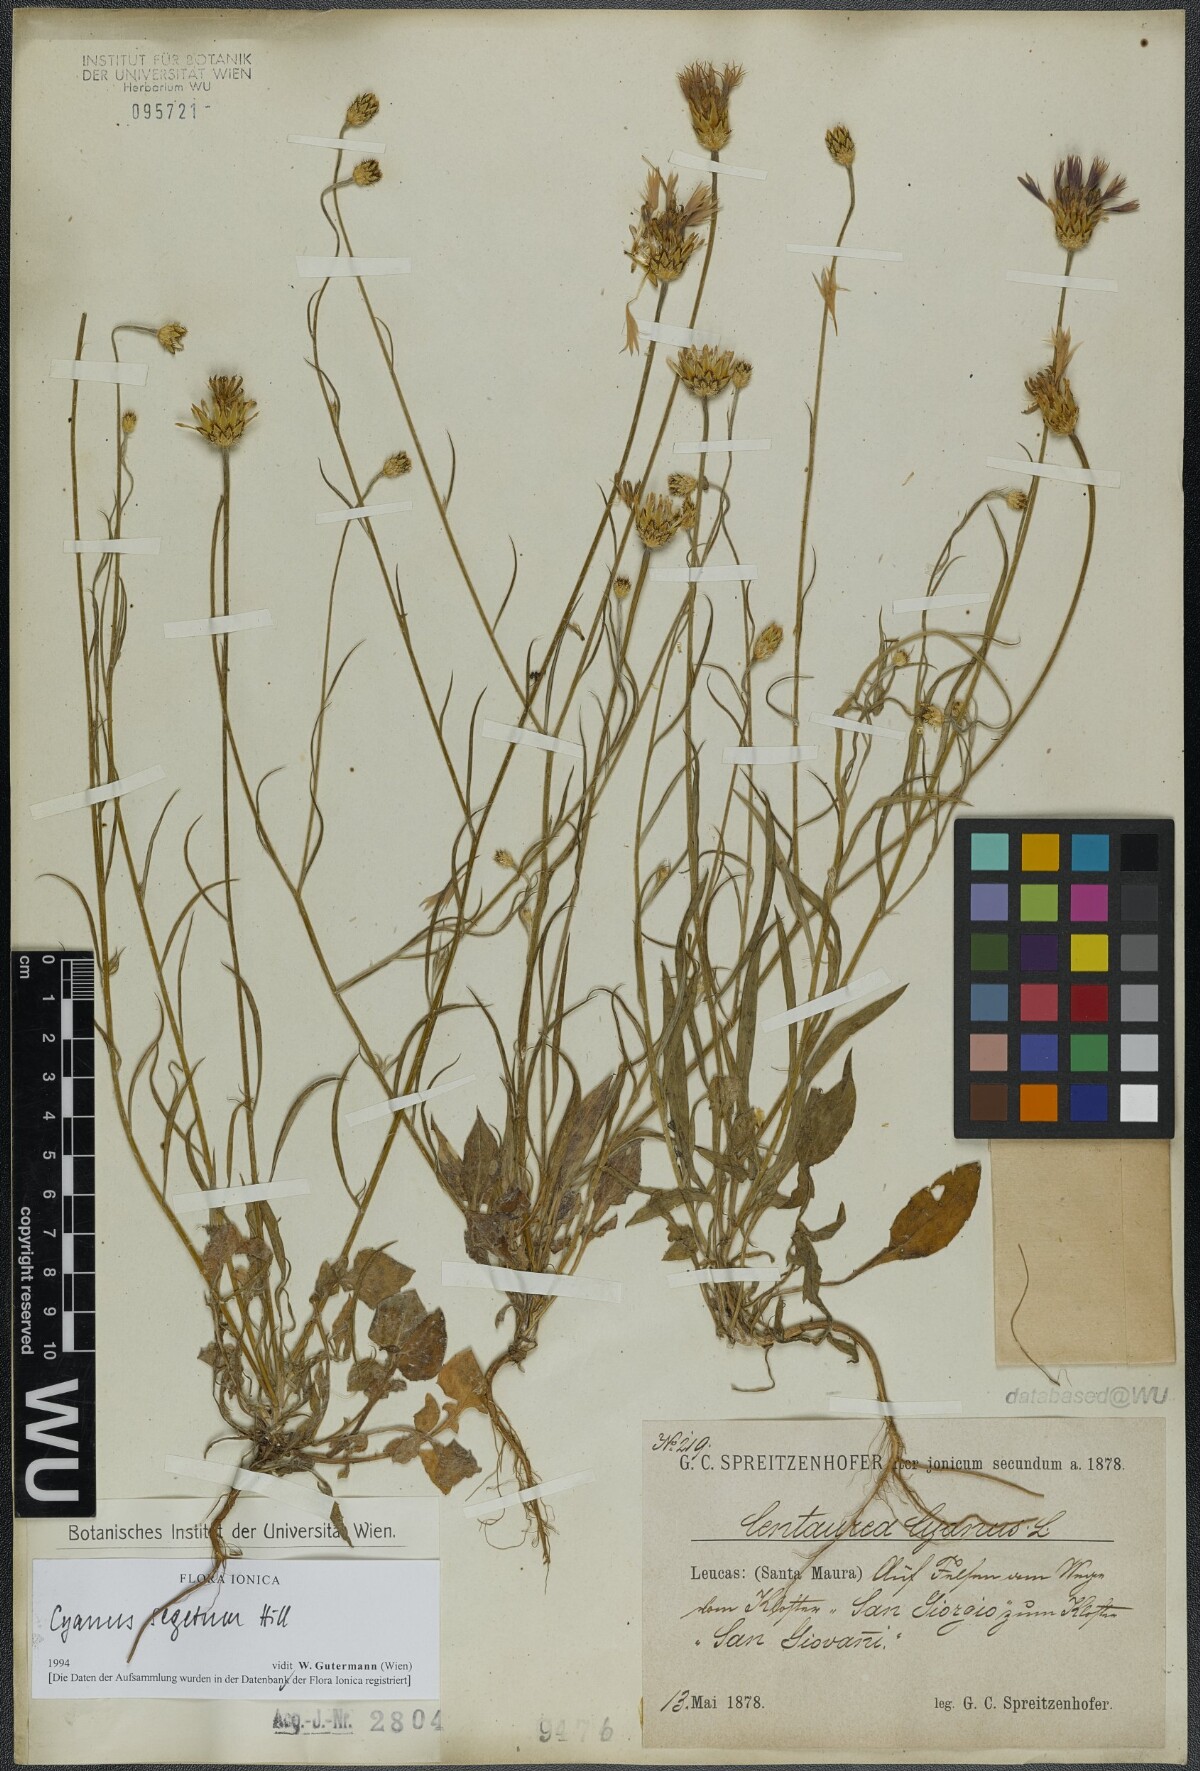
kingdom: Plantae
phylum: Tracheophyta
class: Magnoliopsida
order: Asterales
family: Asteraceae
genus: Centaurea
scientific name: Centaurea cyanus
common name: Cornflower
